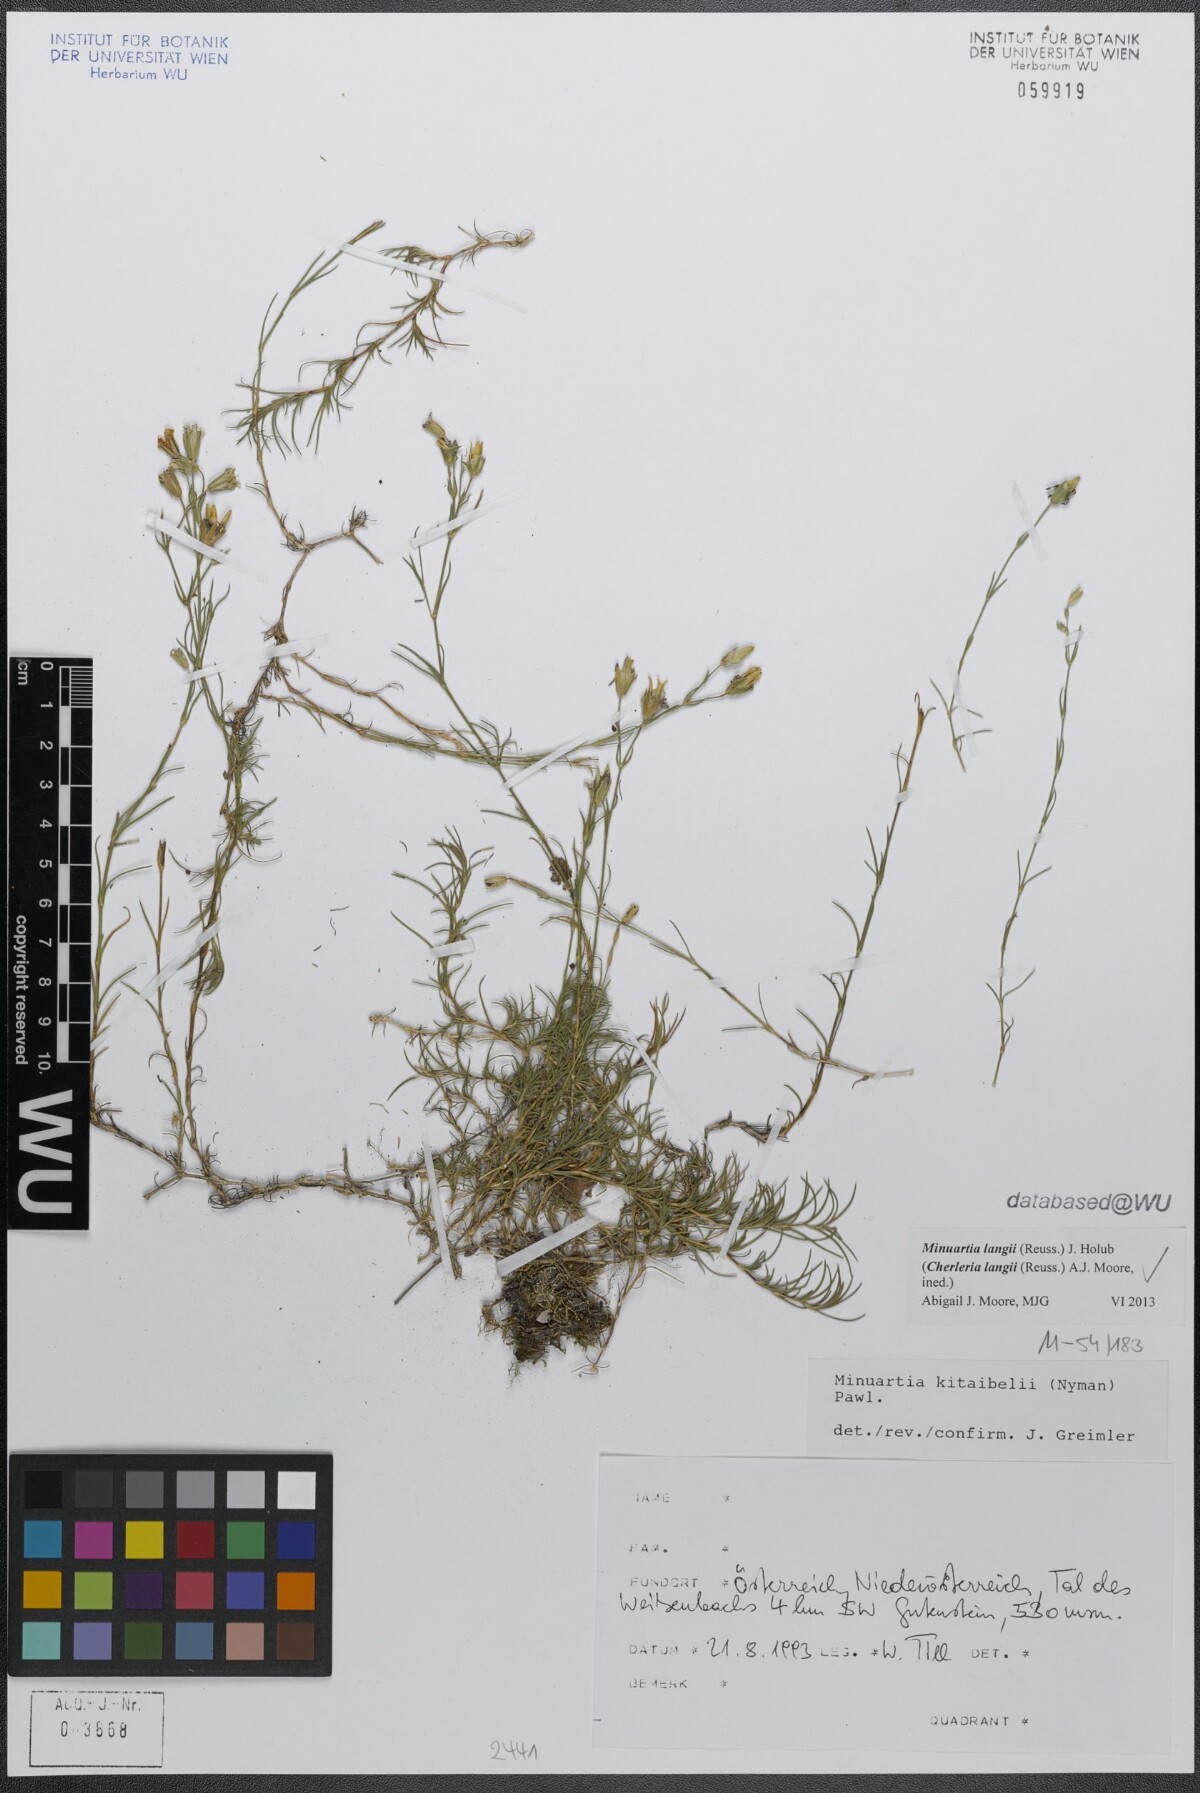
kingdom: Plantae
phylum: Tracheophyta
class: Magnoliopsida
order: Caryophyllales
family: Caryophyllaceae
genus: Cherleria
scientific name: Cherleria langii
